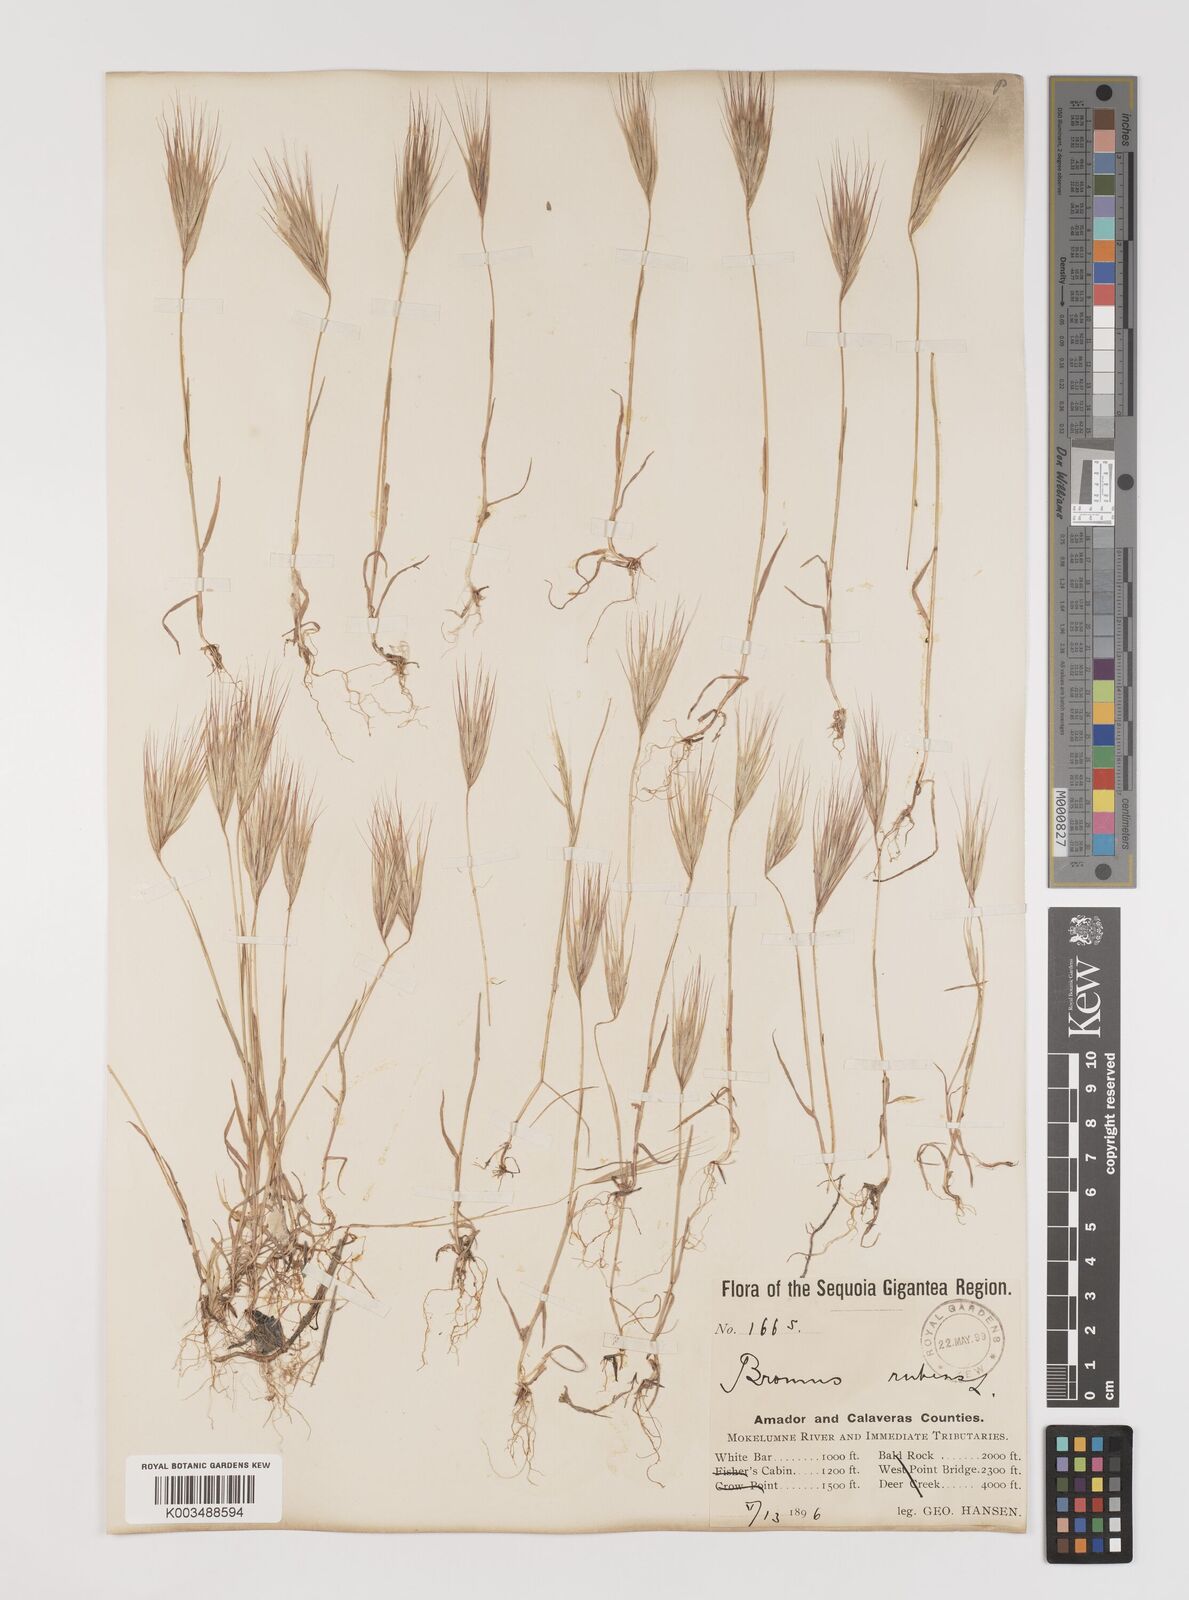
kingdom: Plantae
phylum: Tracheophyta
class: Liliopsida
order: Poales
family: Poaceae
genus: Bromus
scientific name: Bromus rubens
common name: Red brome
